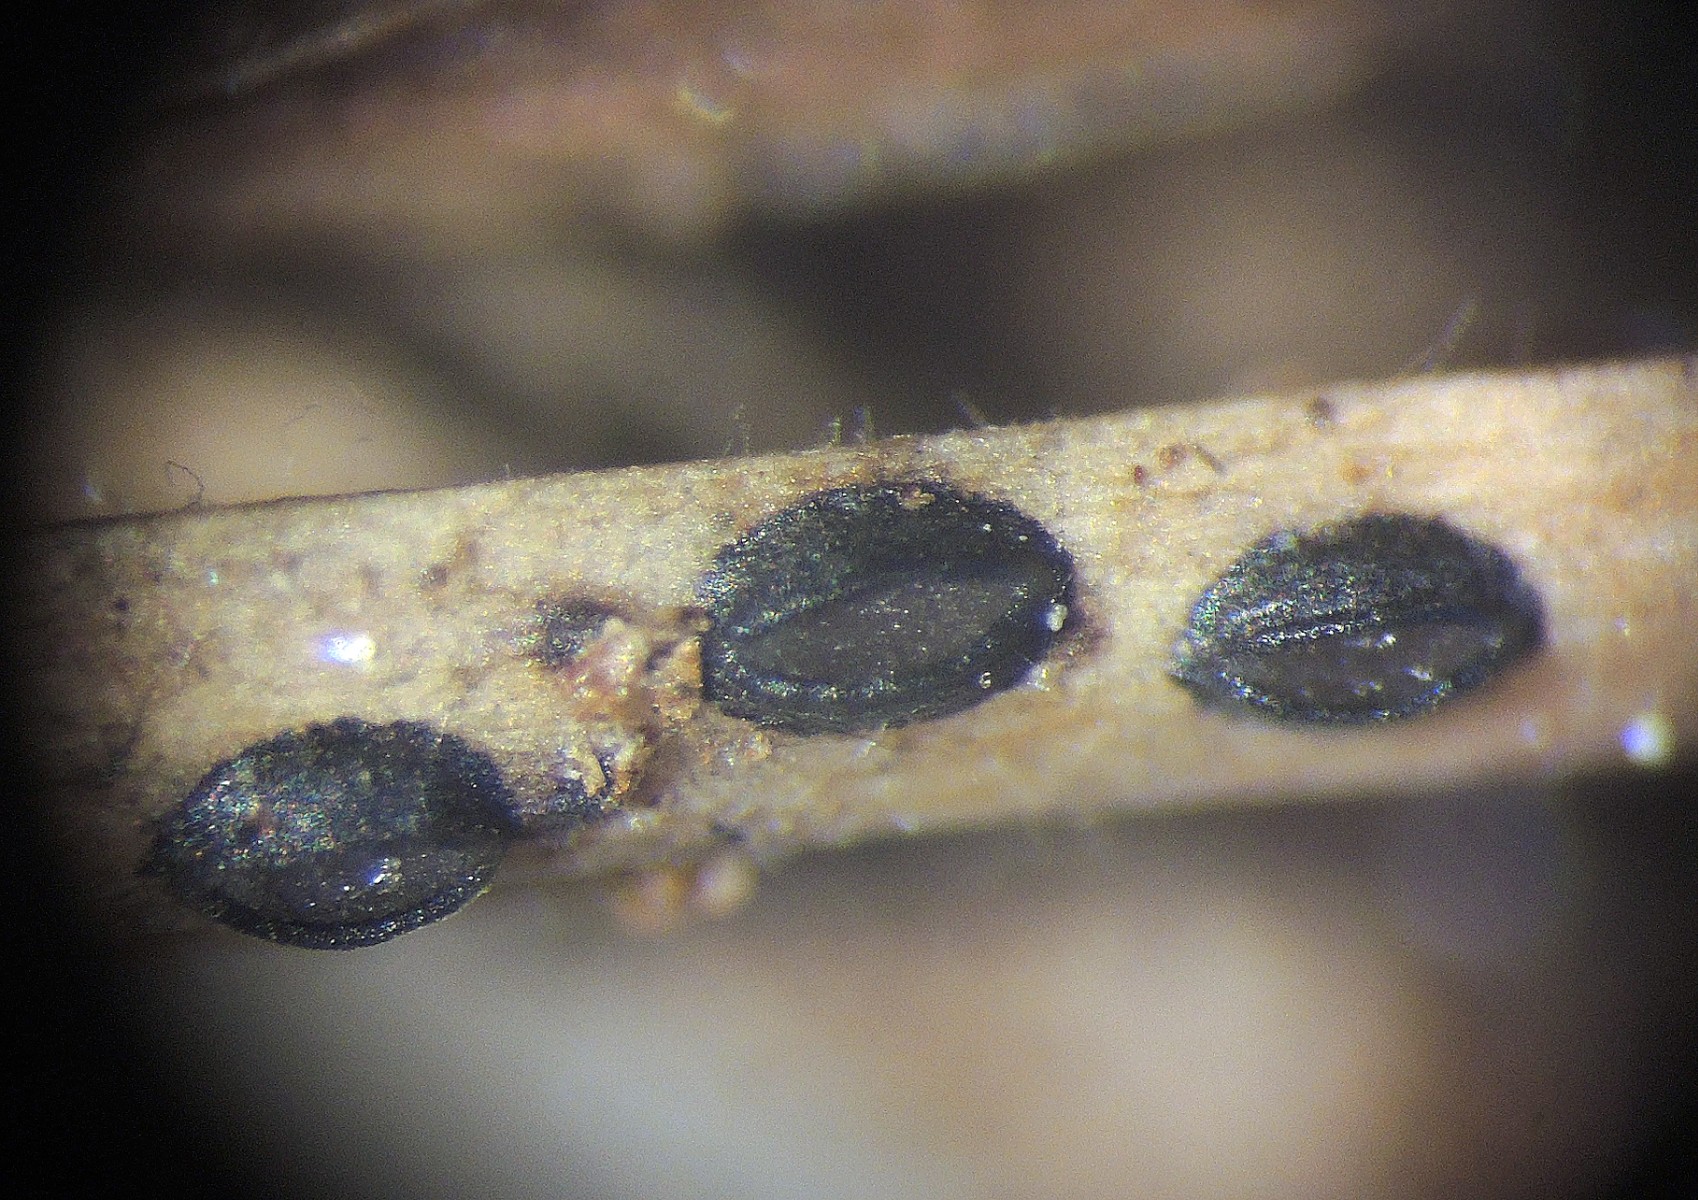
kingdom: Fungi
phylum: Ascomycota
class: Leotiomycetes
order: Rhytismatales
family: Rhytismataceae
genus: Lophodermium
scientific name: Lophodermium
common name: fureplet
